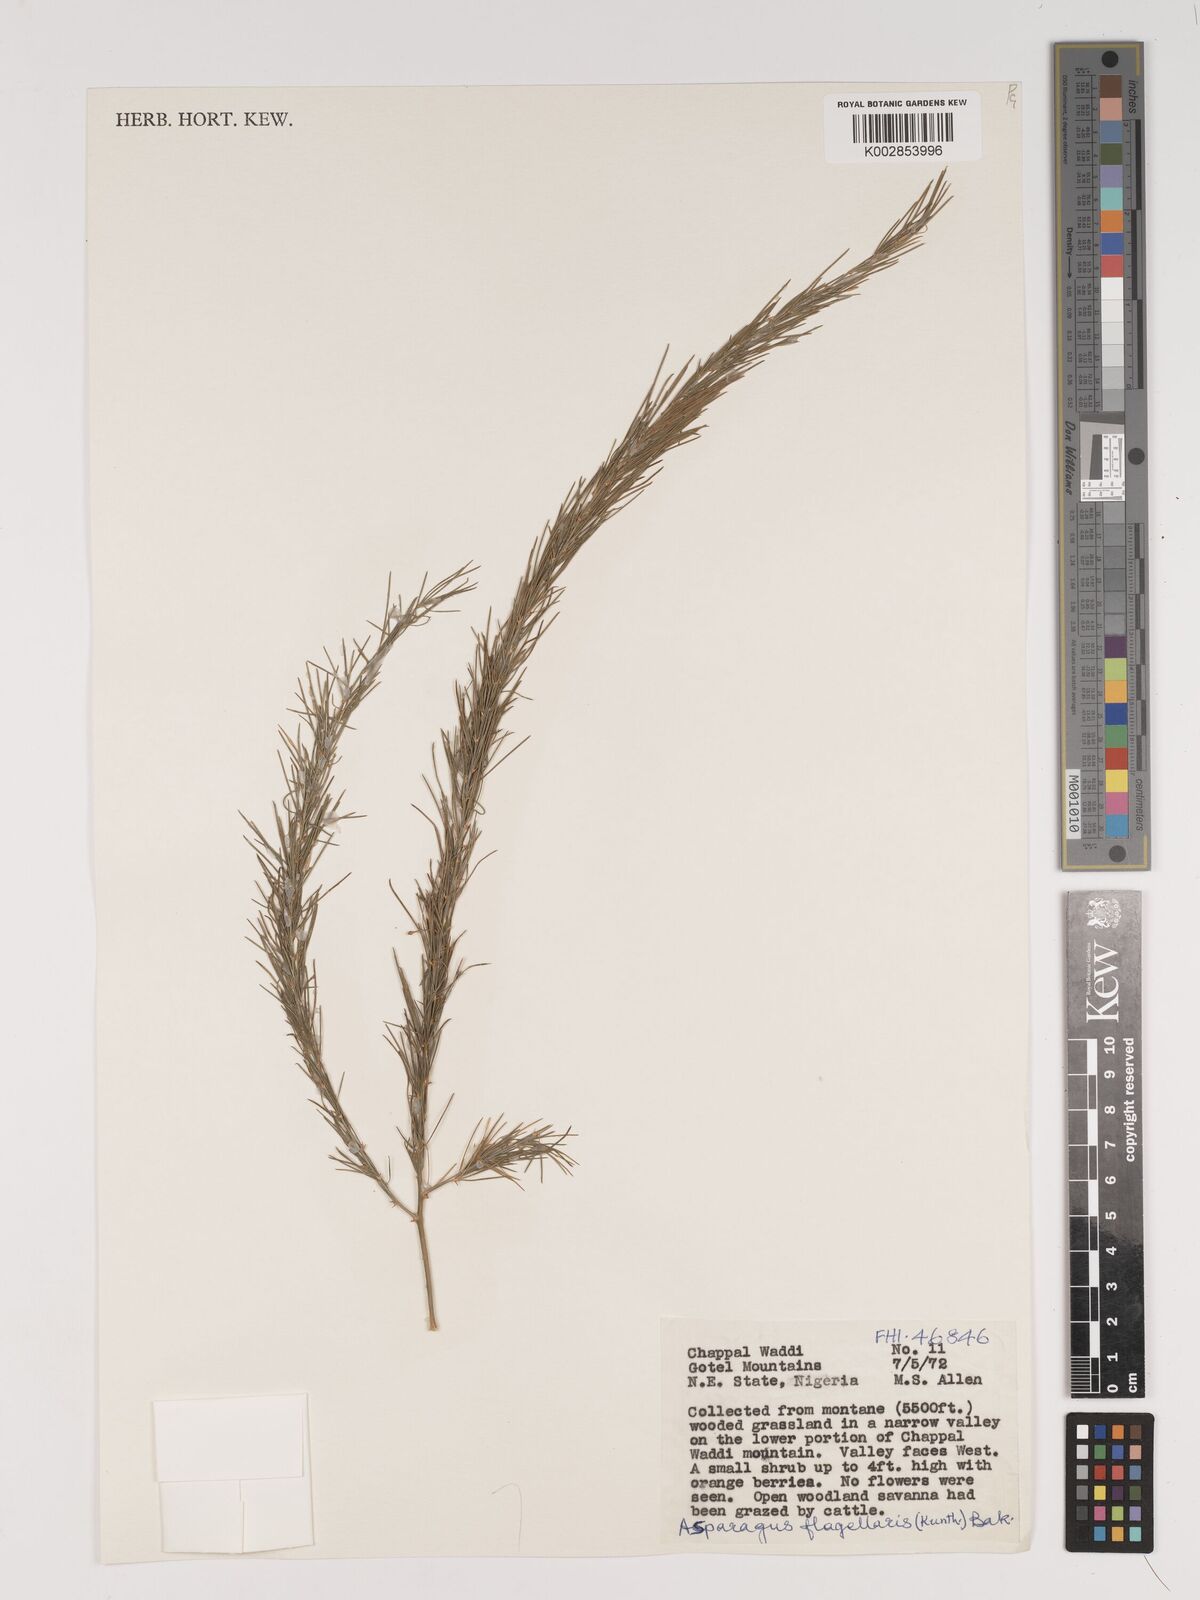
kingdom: Plantae
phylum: Tracheophyta
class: Liliopsida
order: Asparagales
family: Asparagaceae
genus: Asparagus
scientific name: Asparagus flagellaris
